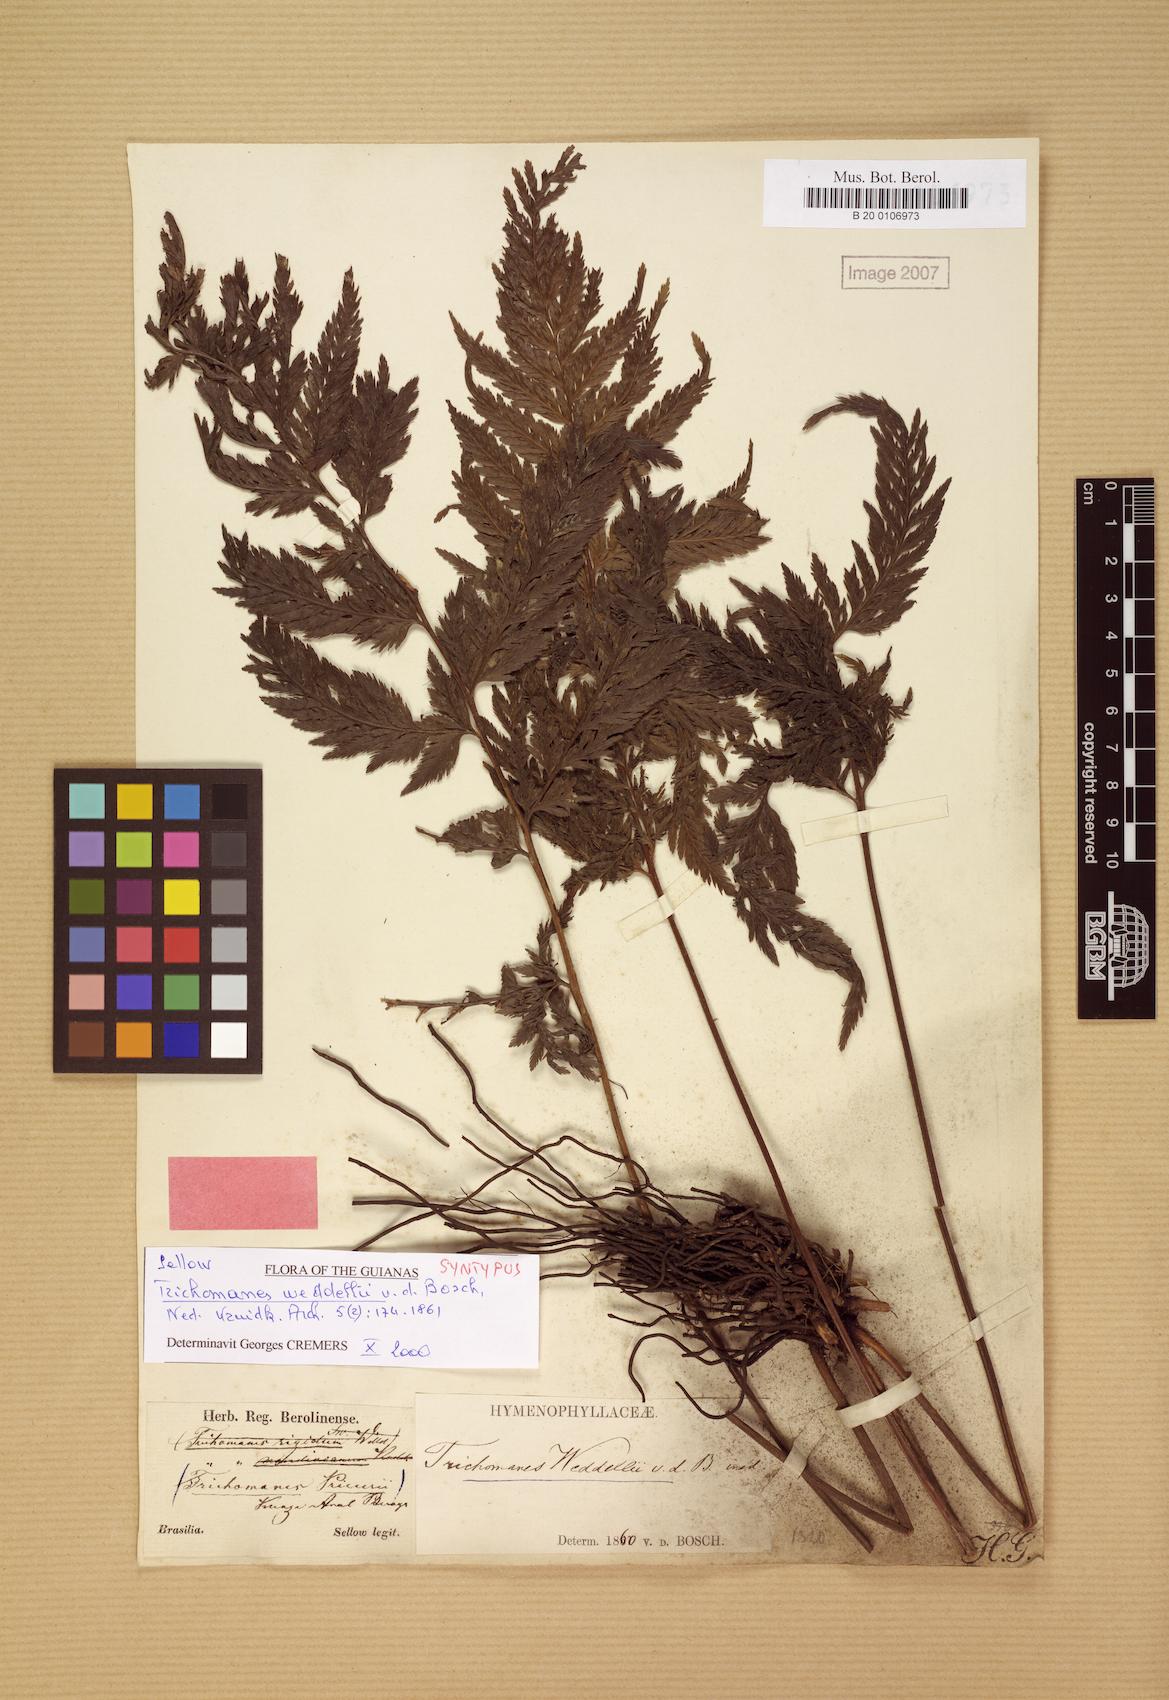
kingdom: Plantae
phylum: Tracheophyta
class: Polypodiopsida
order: Hymenophyllales
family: Hymenophyllaceae
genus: Trichomanes
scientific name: Trichomanes elegans
